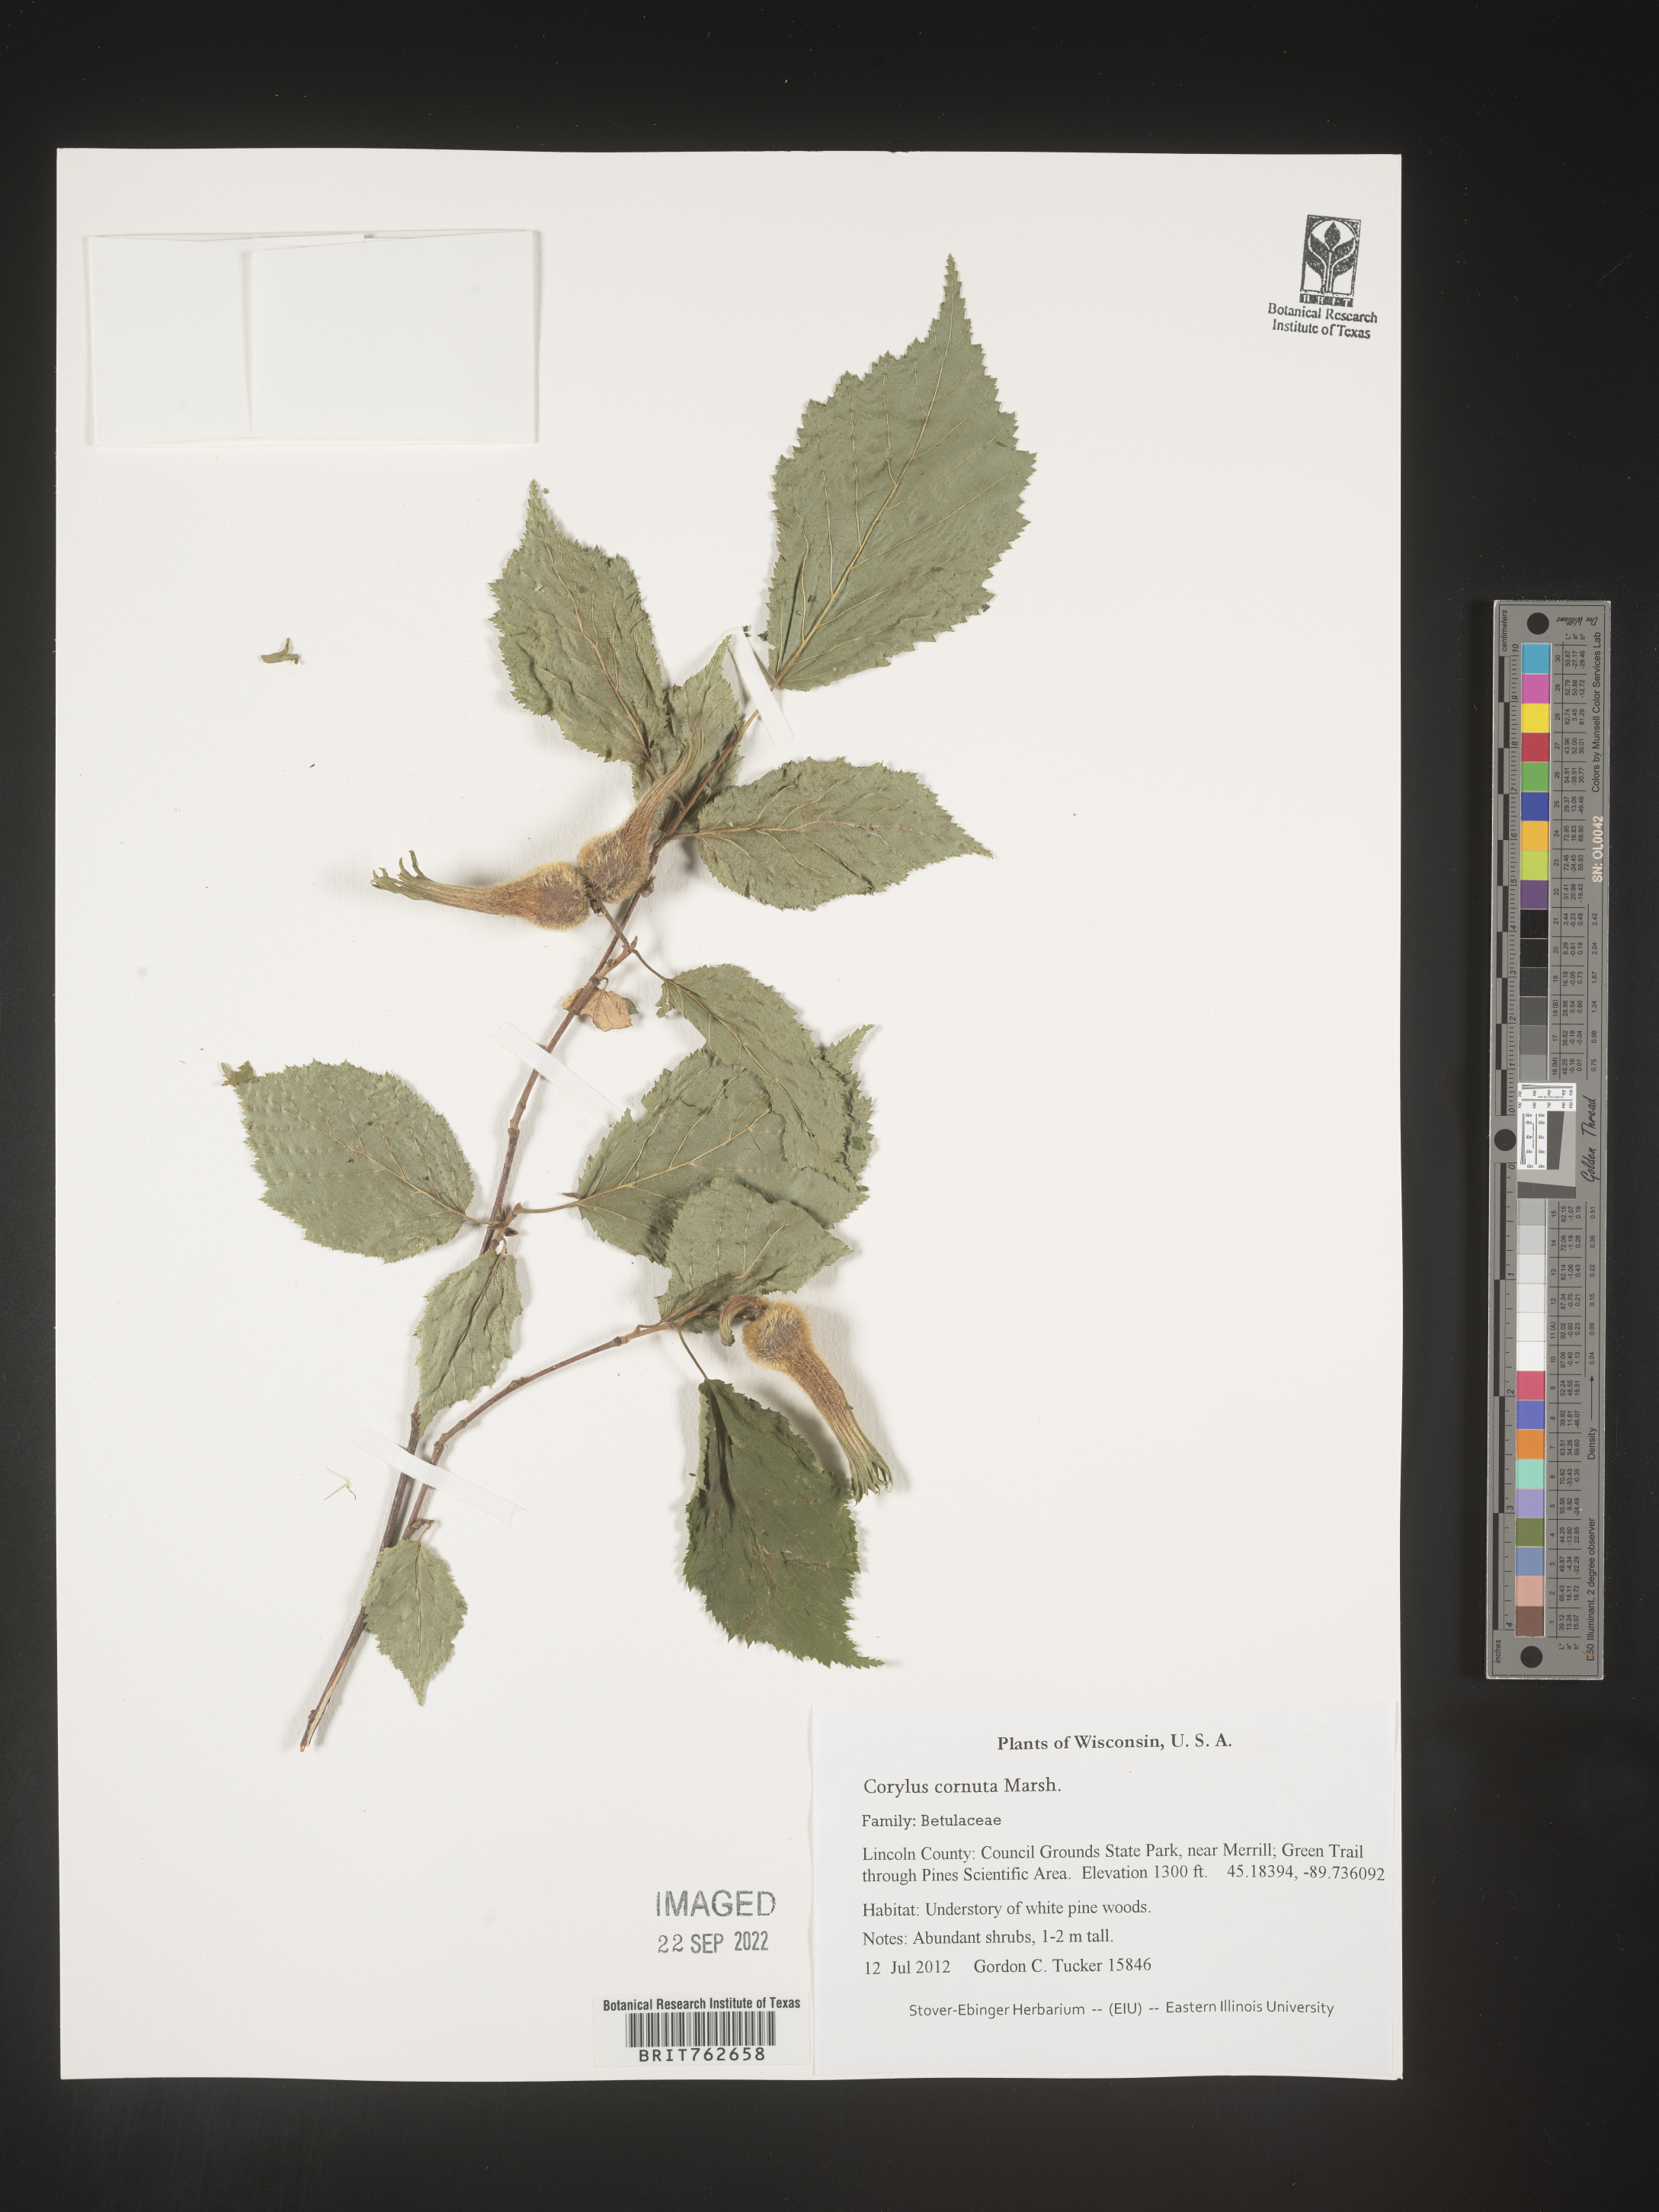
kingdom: Plantae
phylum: Tracheophyta
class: Magnoliopsida
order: Fagales
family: Betulaceae
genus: Corylus
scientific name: Corylus cornuta
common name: Beaked hazel
